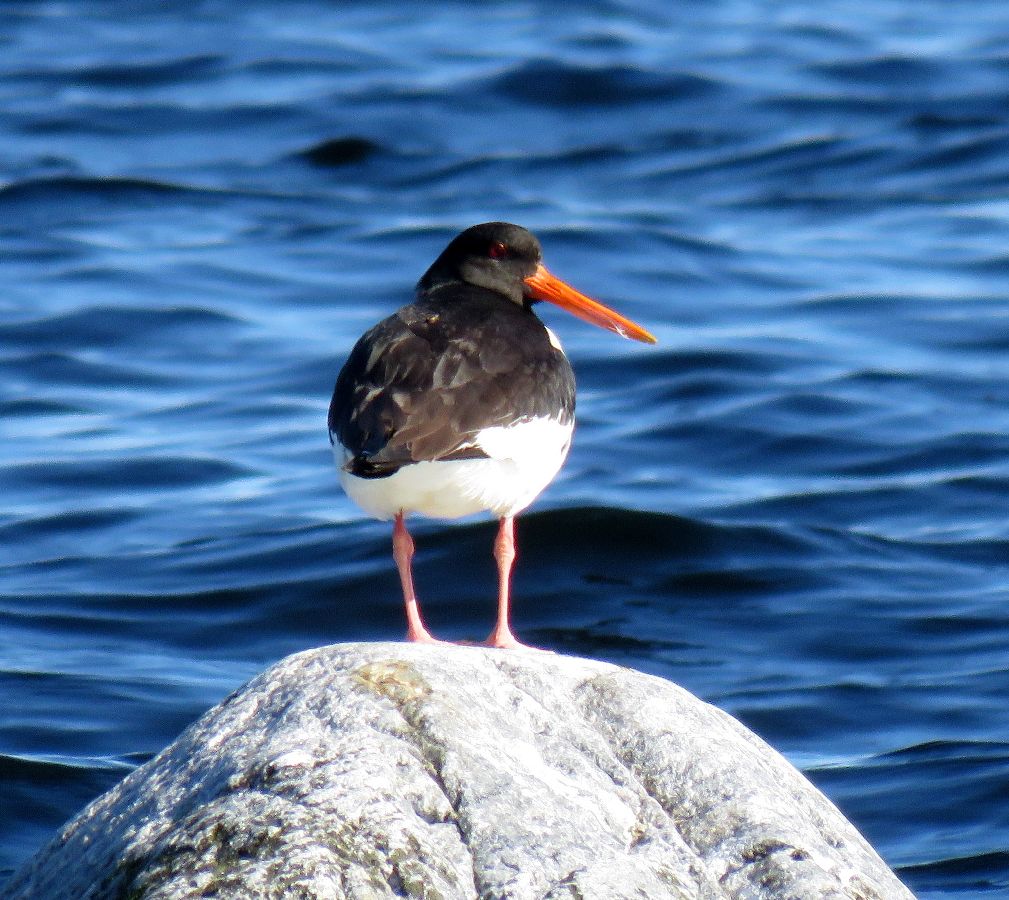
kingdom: Animalia
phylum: Chordata
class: Aves
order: Charadriiformes
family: Haematopodidae
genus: Haematopus
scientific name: Haematopus ostralegus
